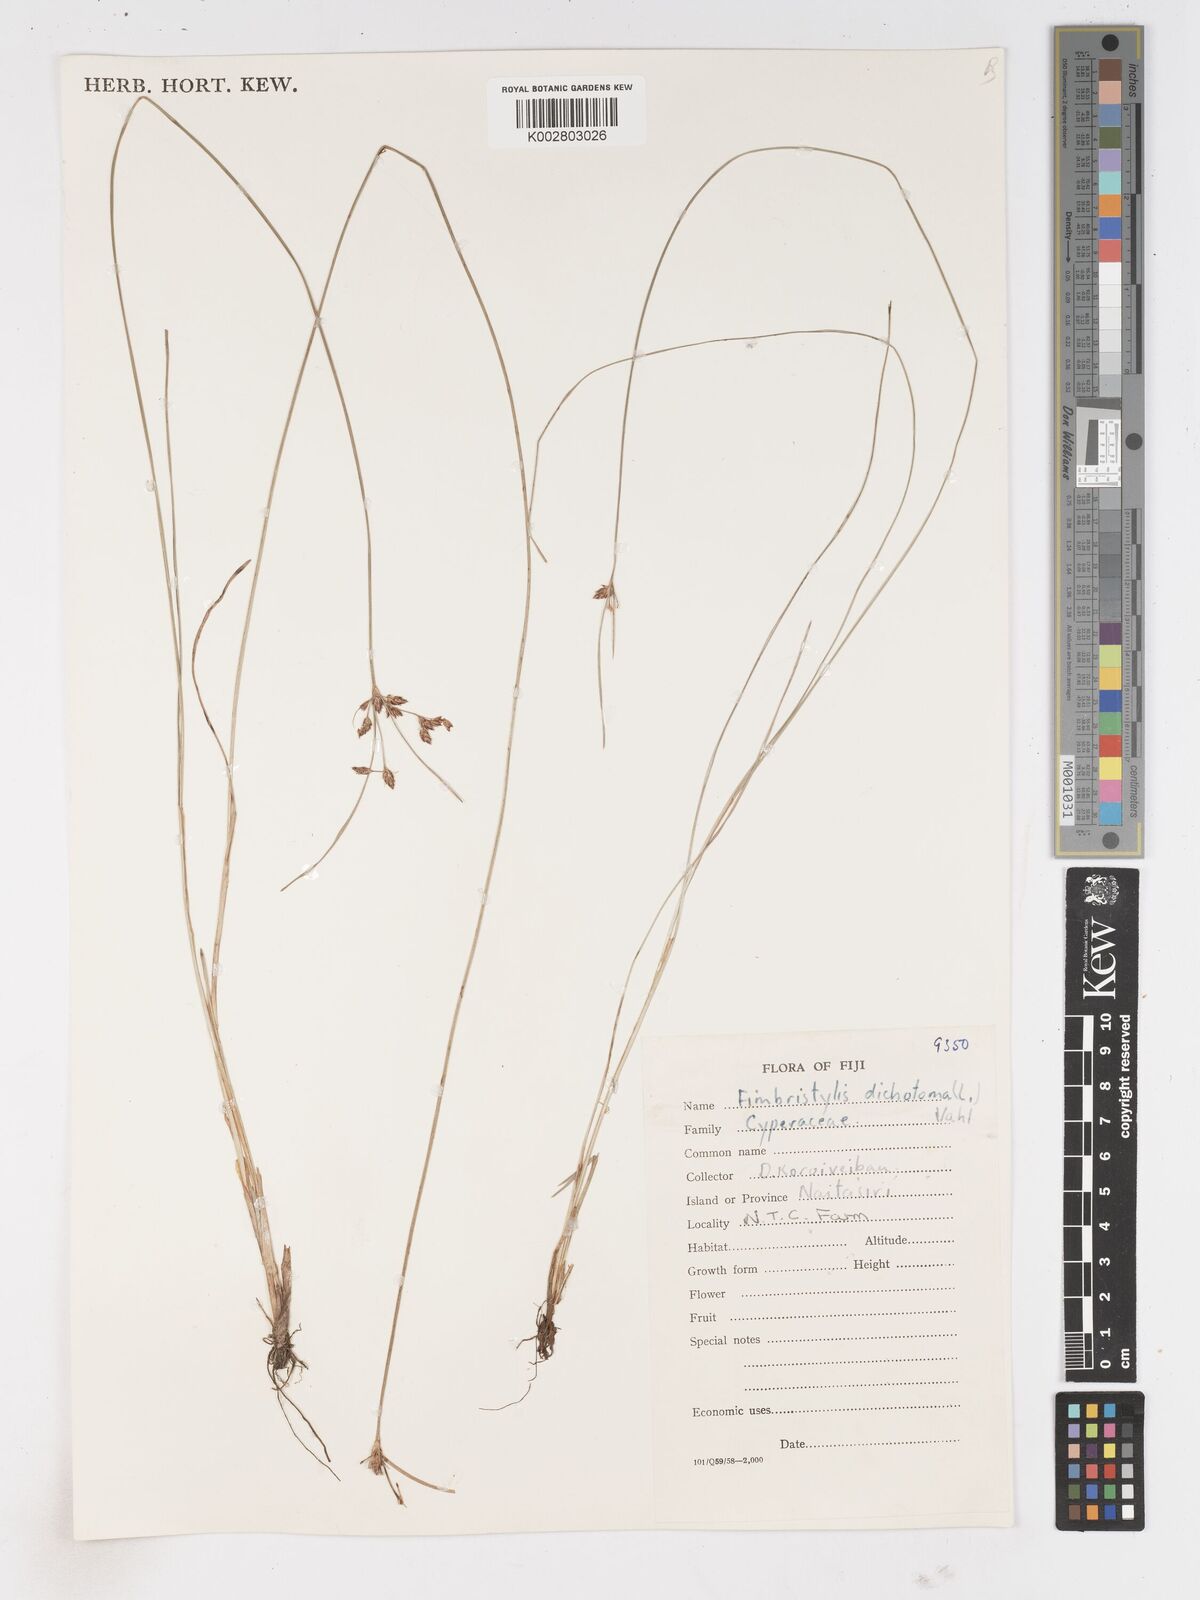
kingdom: Plantae
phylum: Tracheophyta
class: Liliopsida
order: Poales
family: Cyperaceae
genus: Fimbristylis
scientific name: Fimbristylis dichotoma
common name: Forked fimbry
